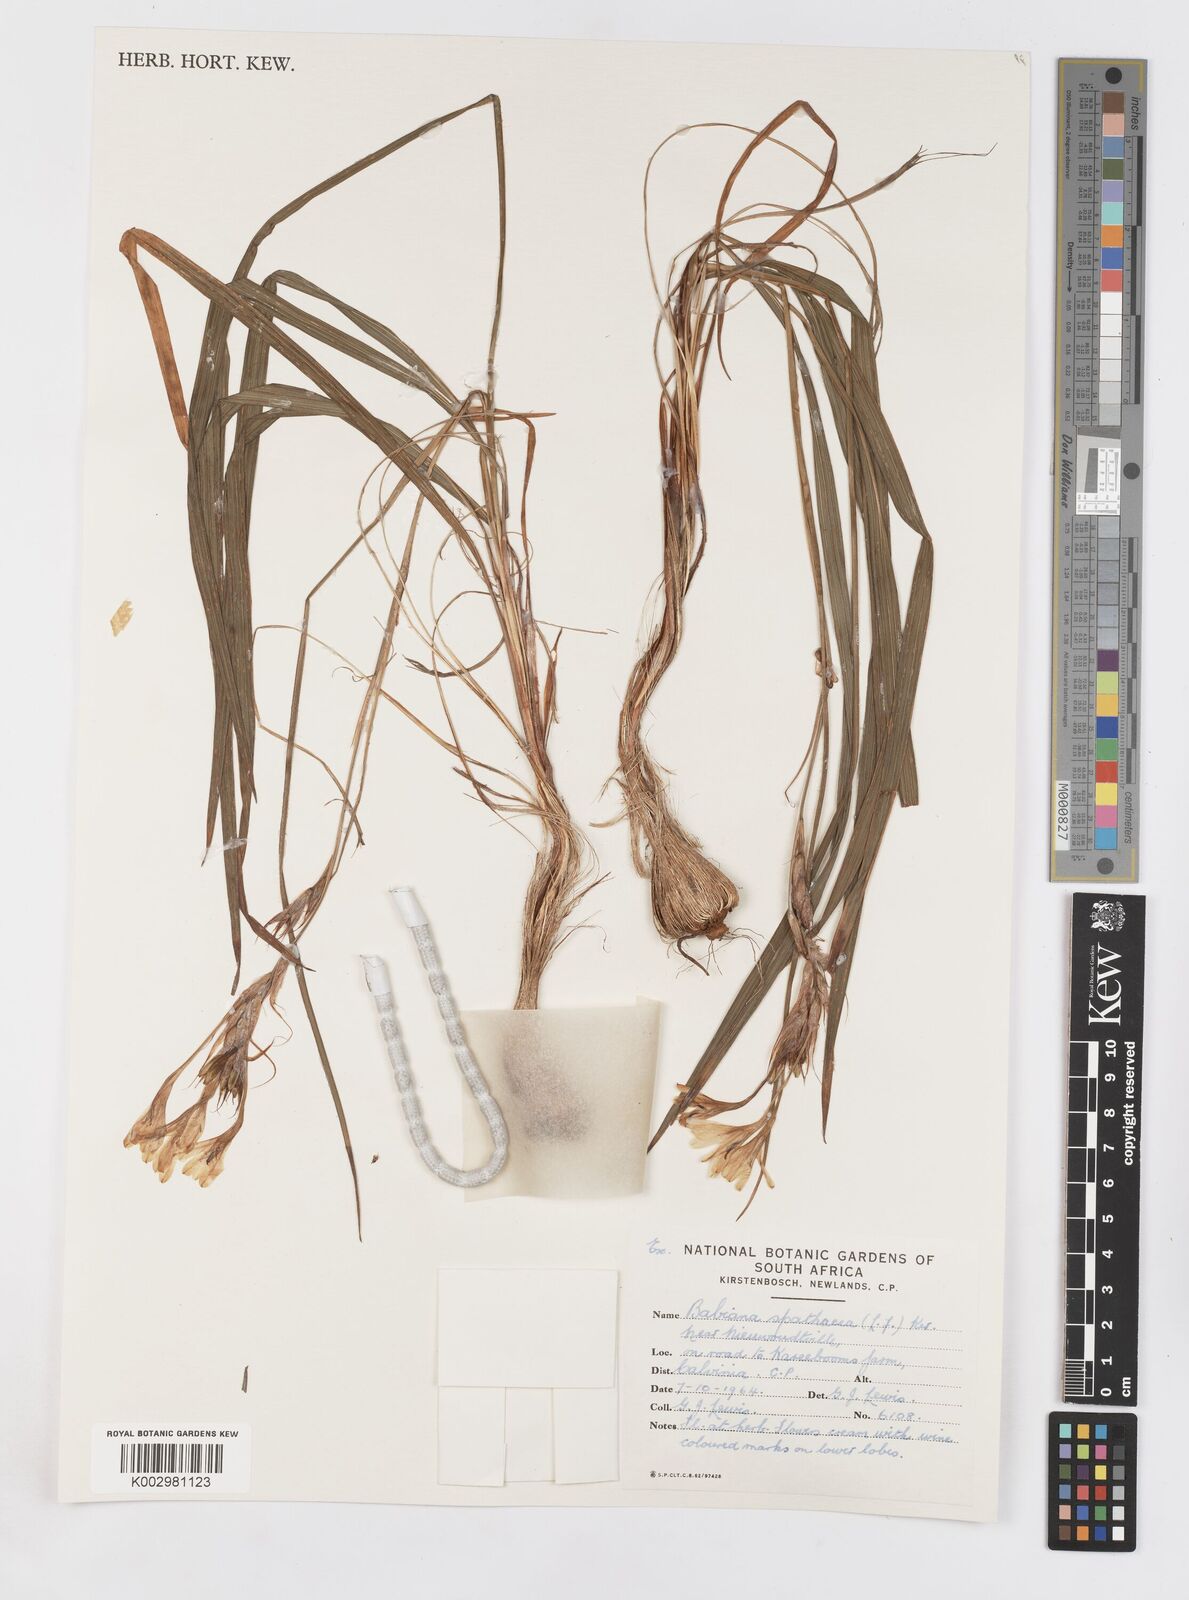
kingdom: Plantae
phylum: Tracheophyta
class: Liliopsida
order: Asparagales
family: Iridaceae
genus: Babiana
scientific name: Babiana spathacea
